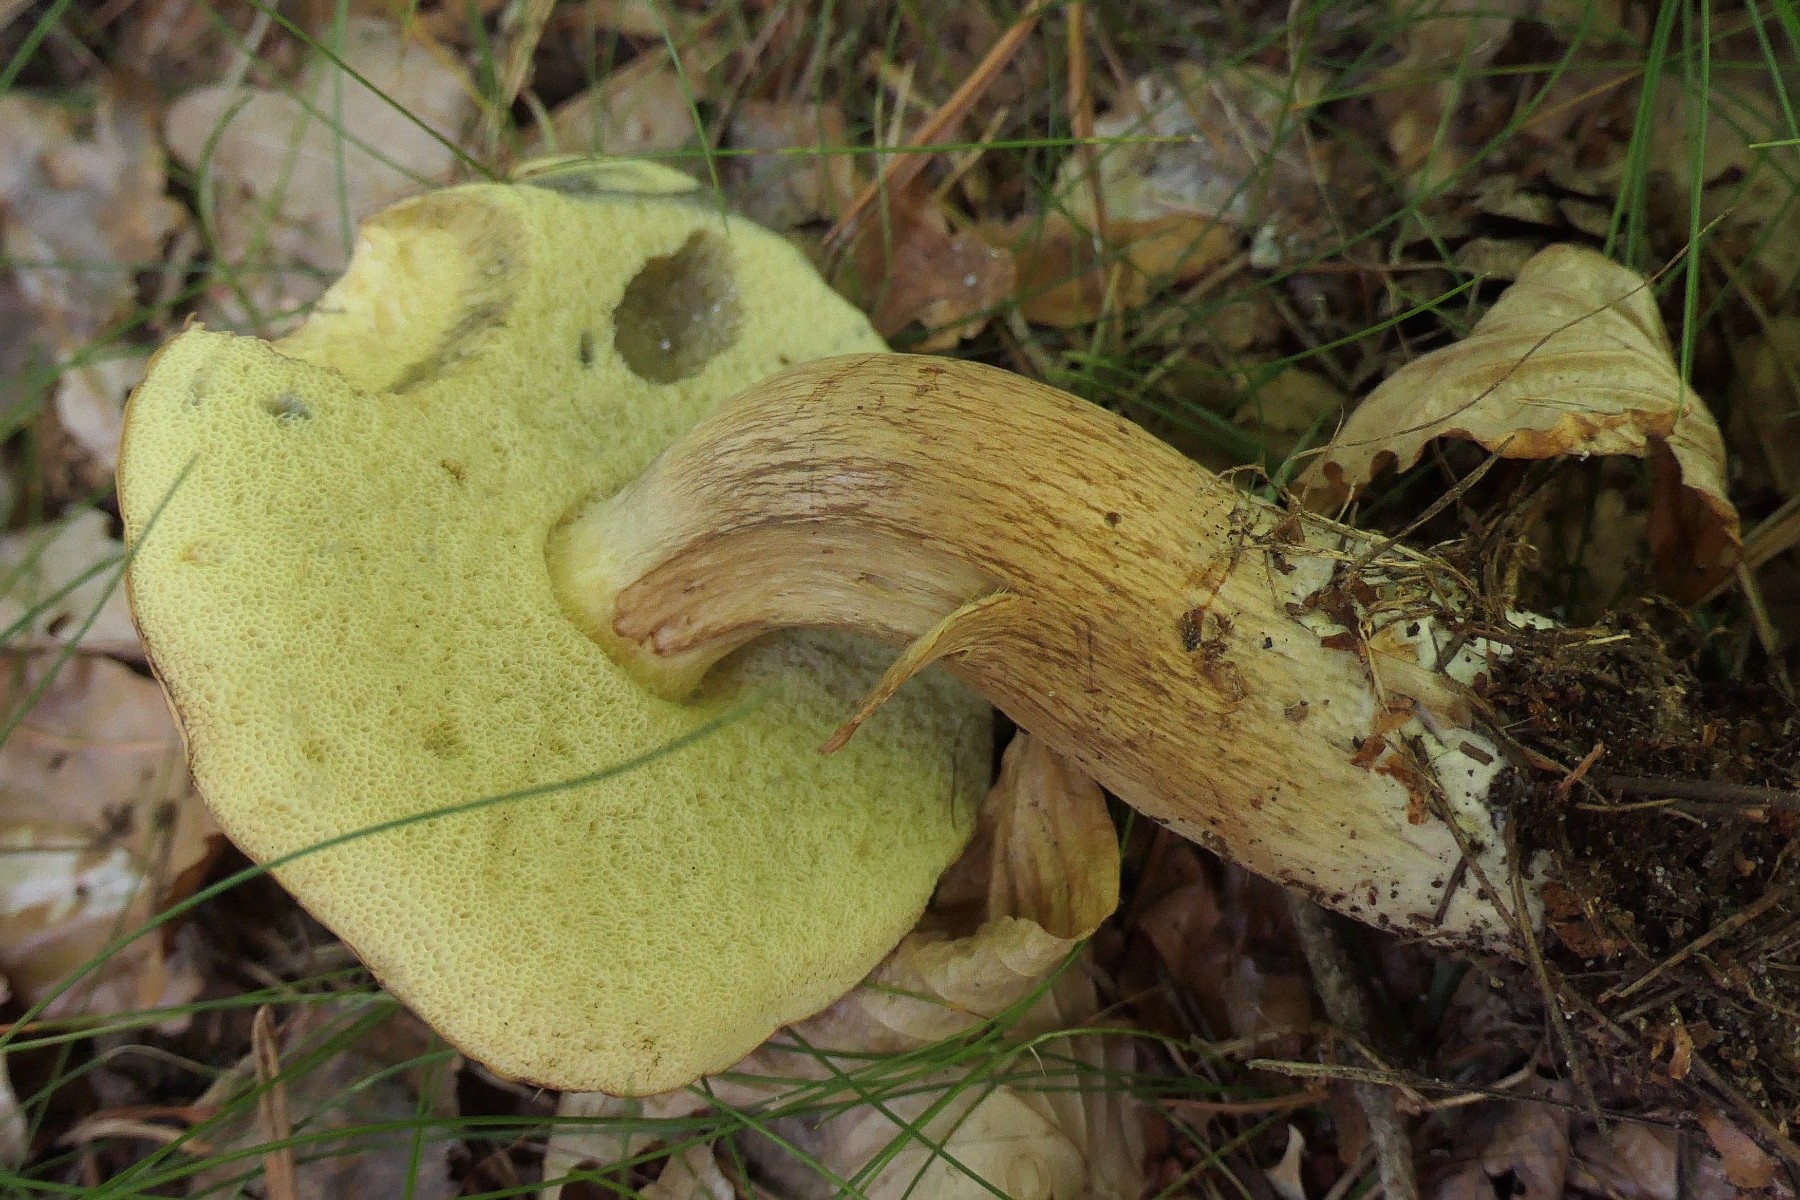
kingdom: Fungi
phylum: Basidiomycota
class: Agaricomycetes
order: Boletales
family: Boletaceae
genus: Imleria
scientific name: Imleria badia
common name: brunstokket rørhat
